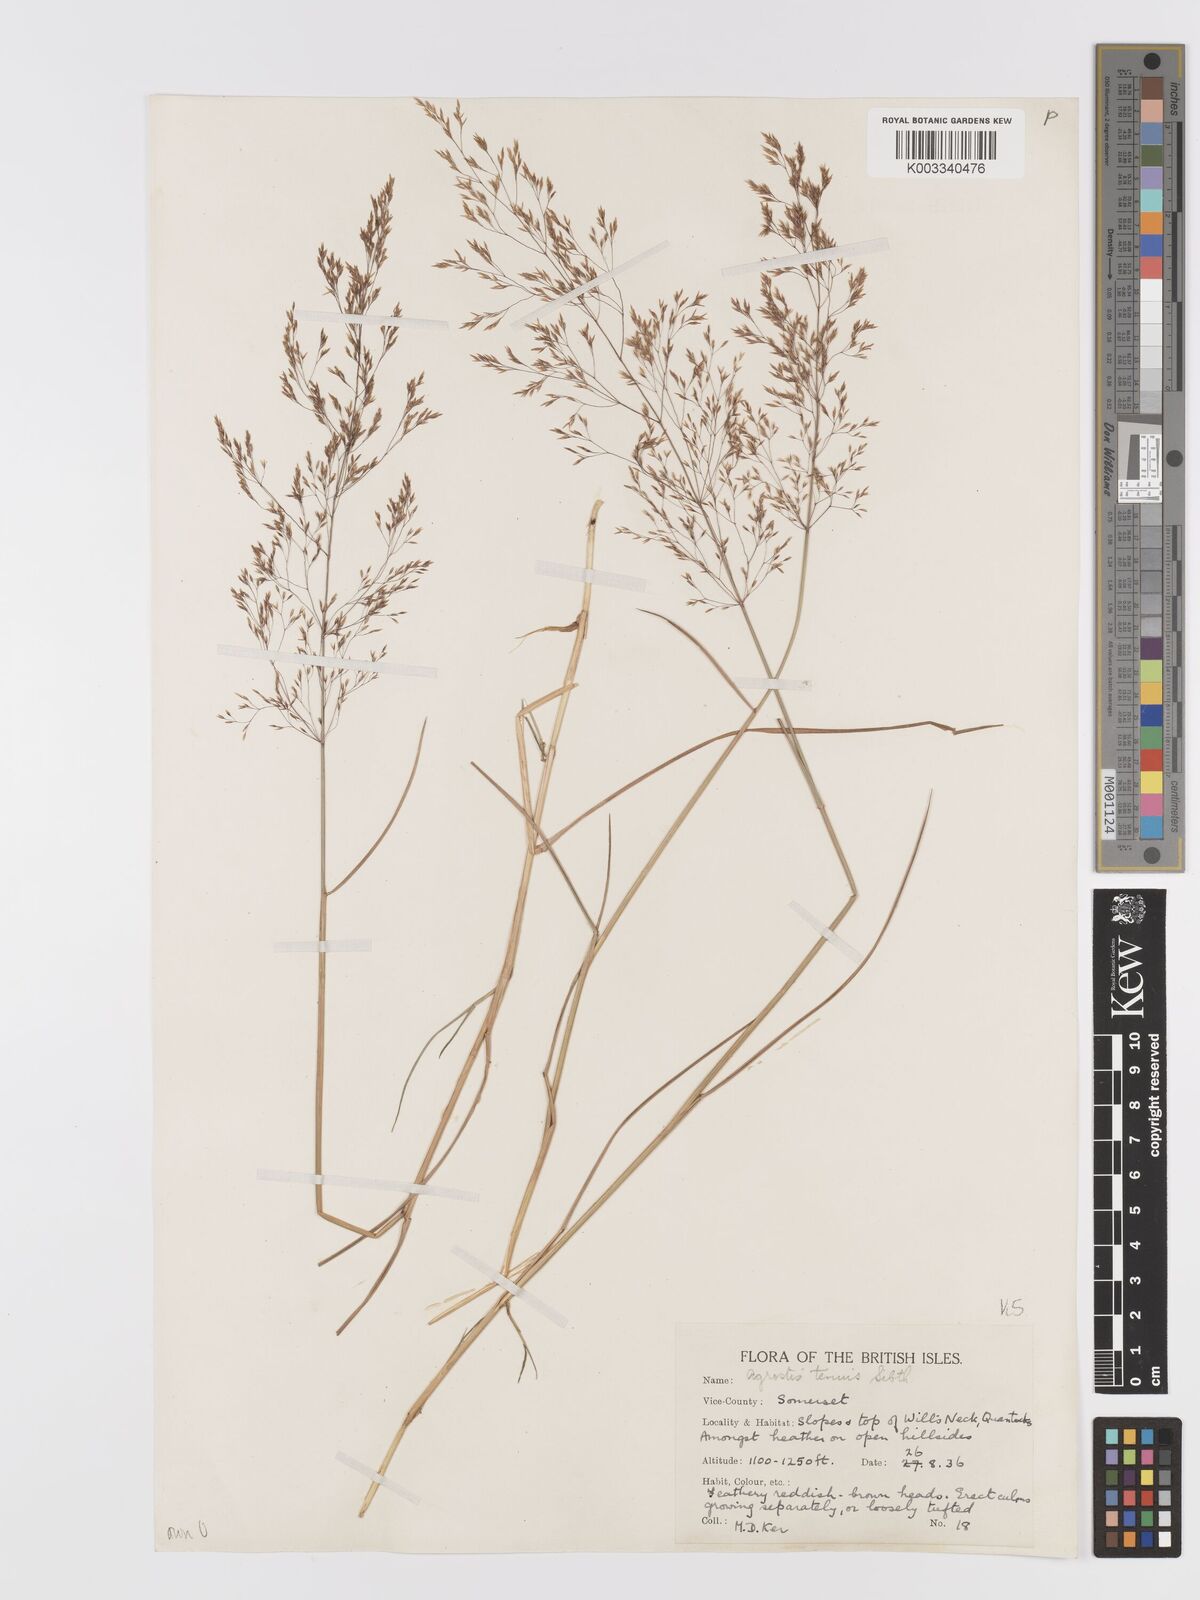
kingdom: Plantae
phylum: Tracheophyta
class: Liliopsida
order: Poales
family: Poaceae
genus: Agrostis
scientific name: Agrostis capillaris
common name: Colonial bentgrass
